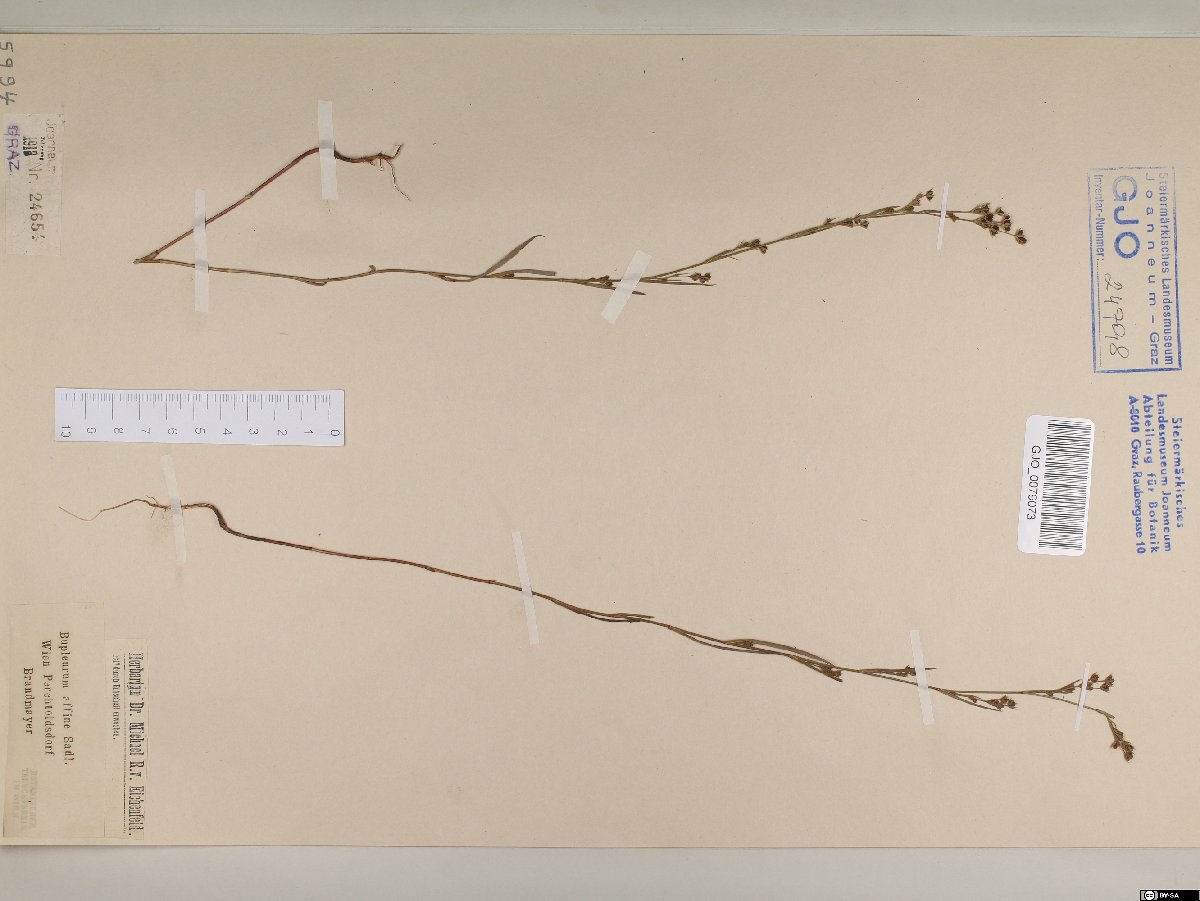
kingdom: Plantae
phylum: Tracheophyta
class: Magnoliopsida
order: Apiales
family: Apiaceae
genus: Bupleurum
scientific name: Bupleurum affine
